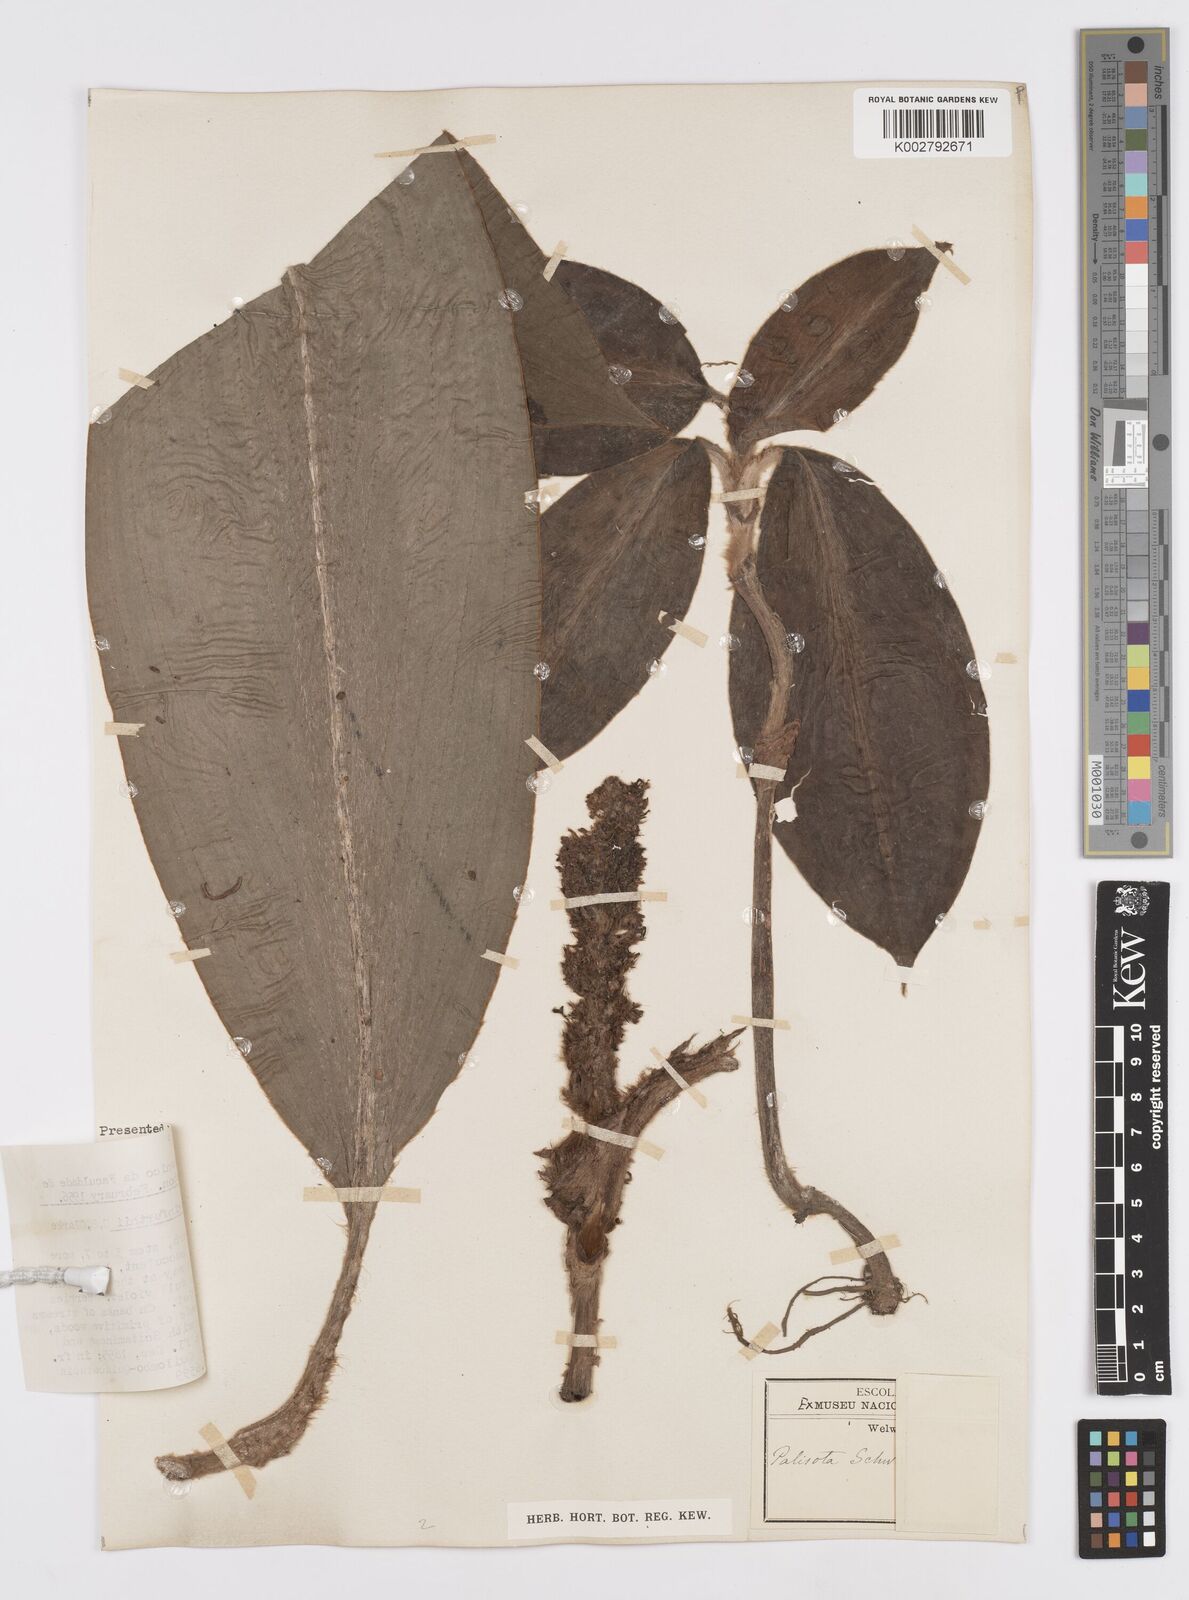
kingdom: Plantae
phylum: Tracheophyta
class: Liliopsida
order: Commelinales
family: Commelinaceae
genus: Palisota
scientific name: Palisota schweinfurthii
